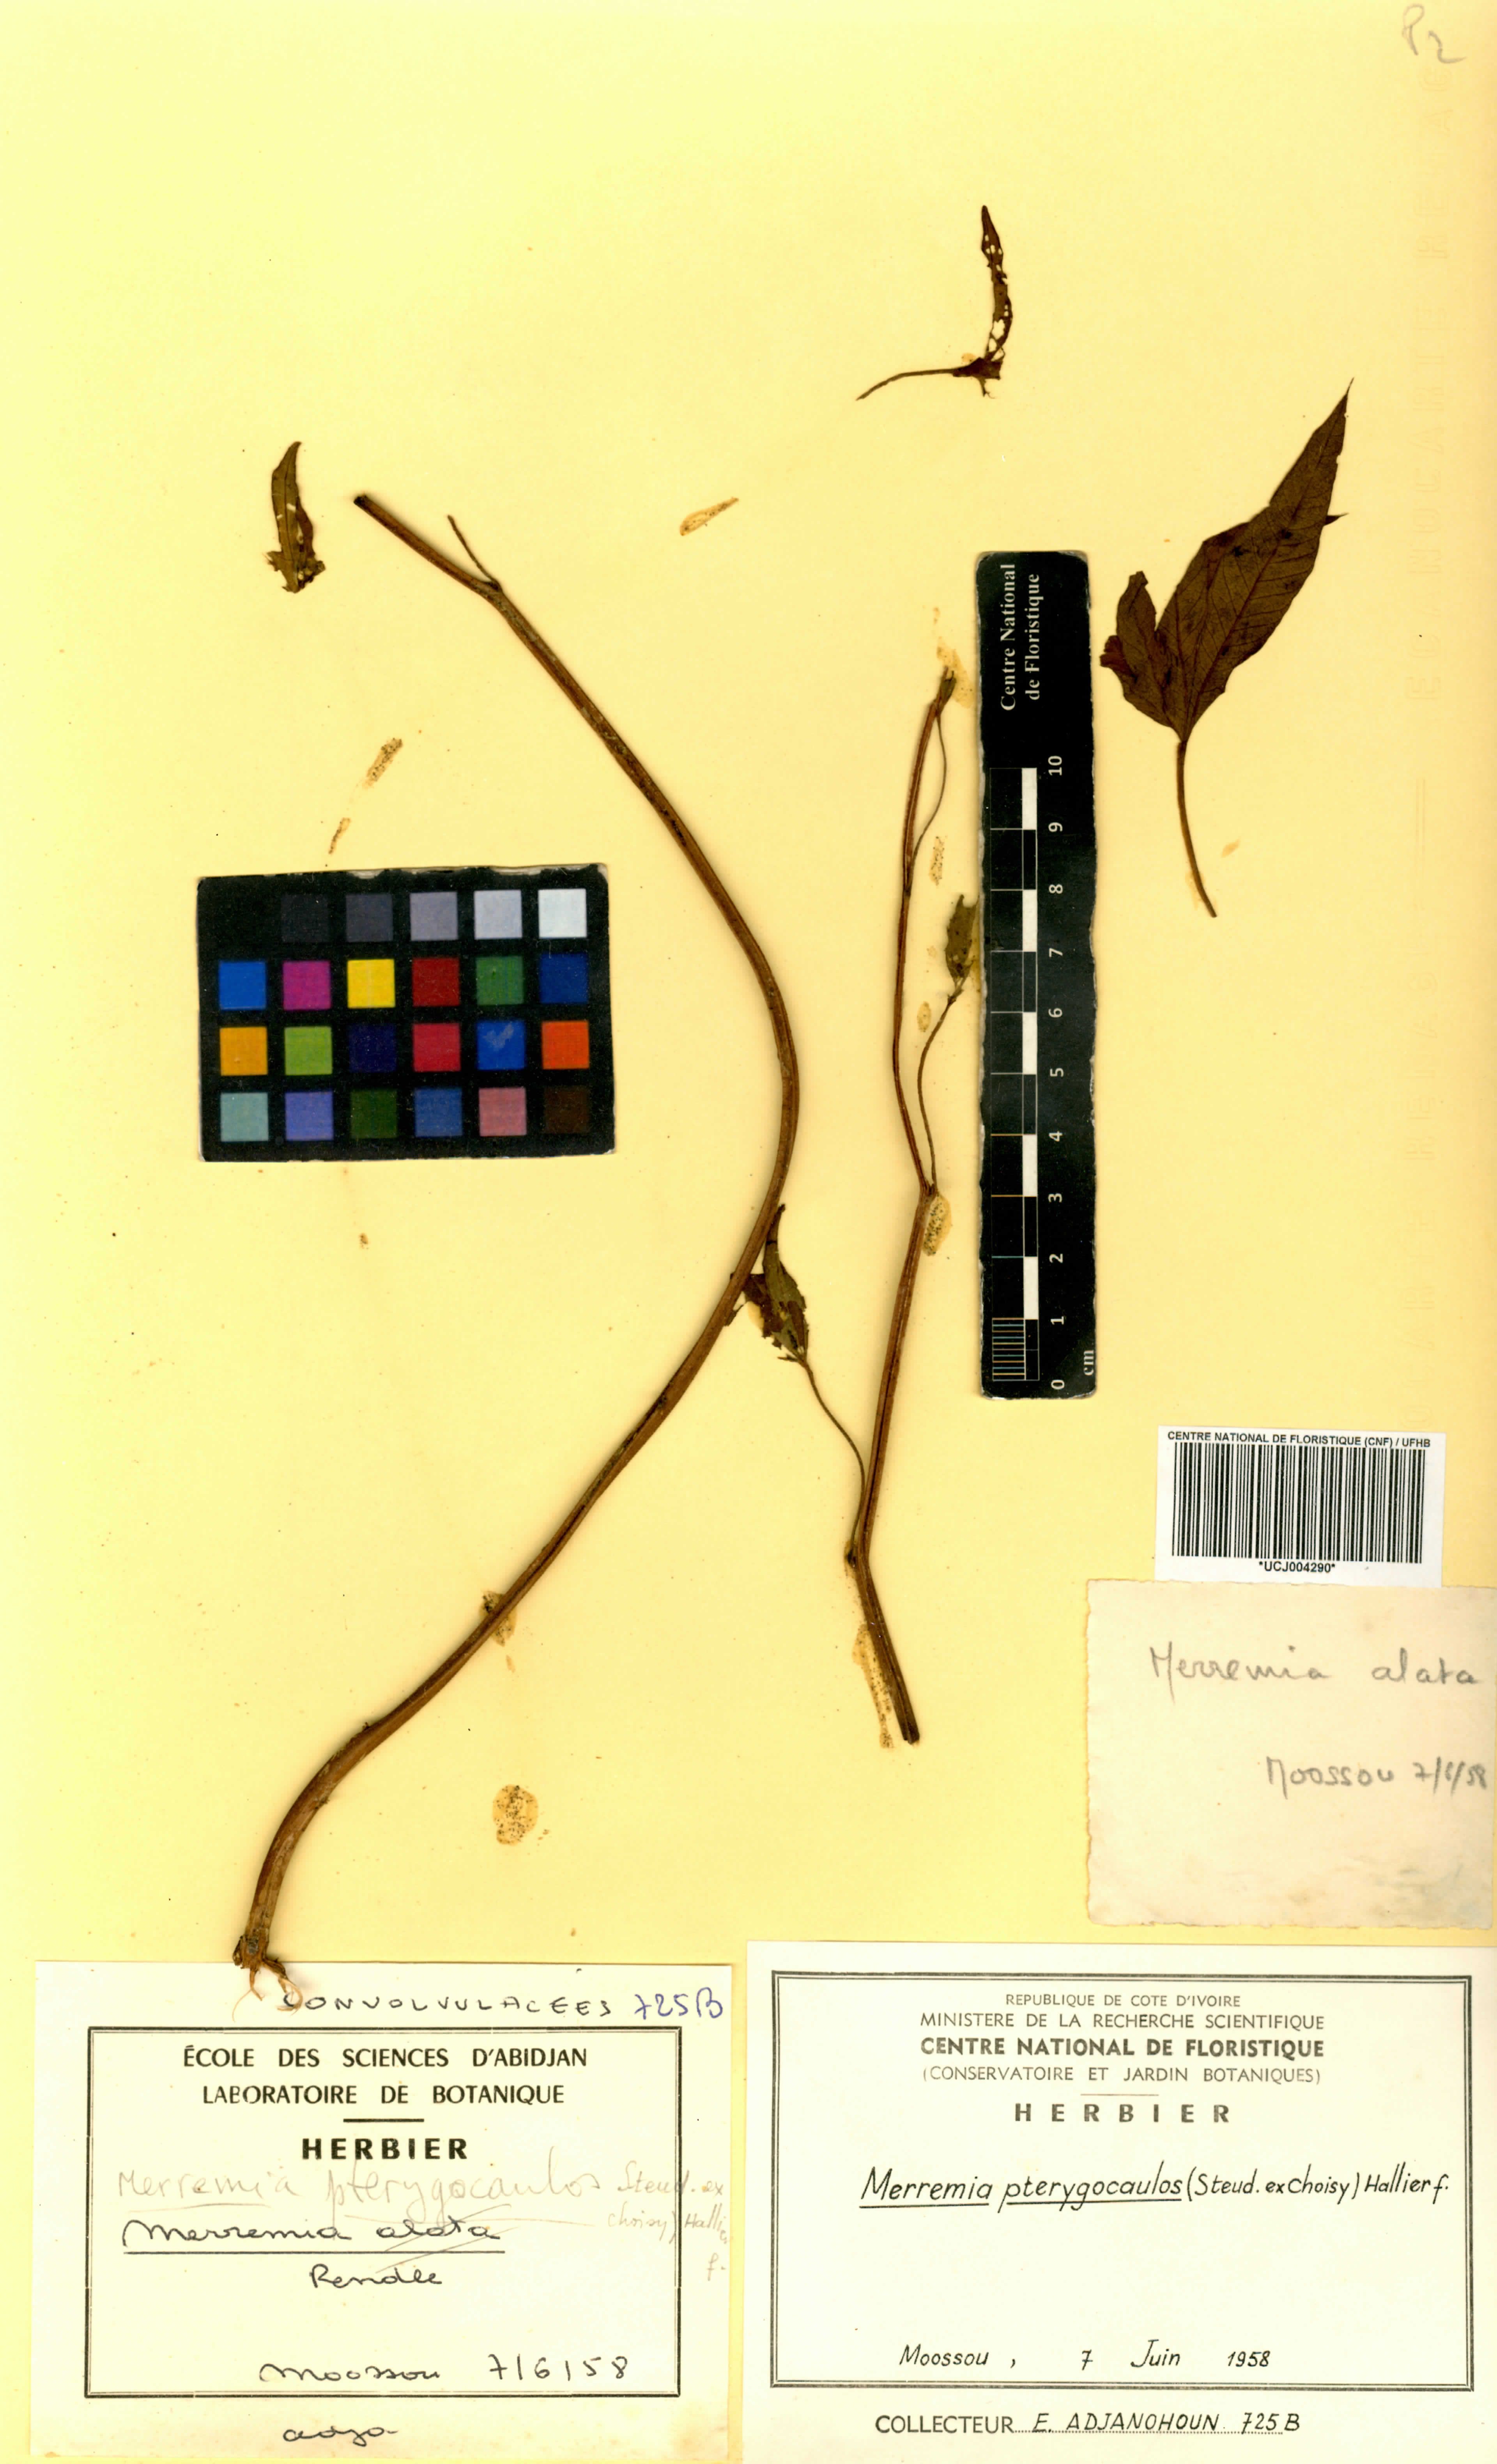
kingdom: Plantae
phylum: Tracheophyta
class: Magnoliopsida
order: Solanales
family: Convolvulaceae
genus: Merremia
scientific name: Merremia pterygocaulos
